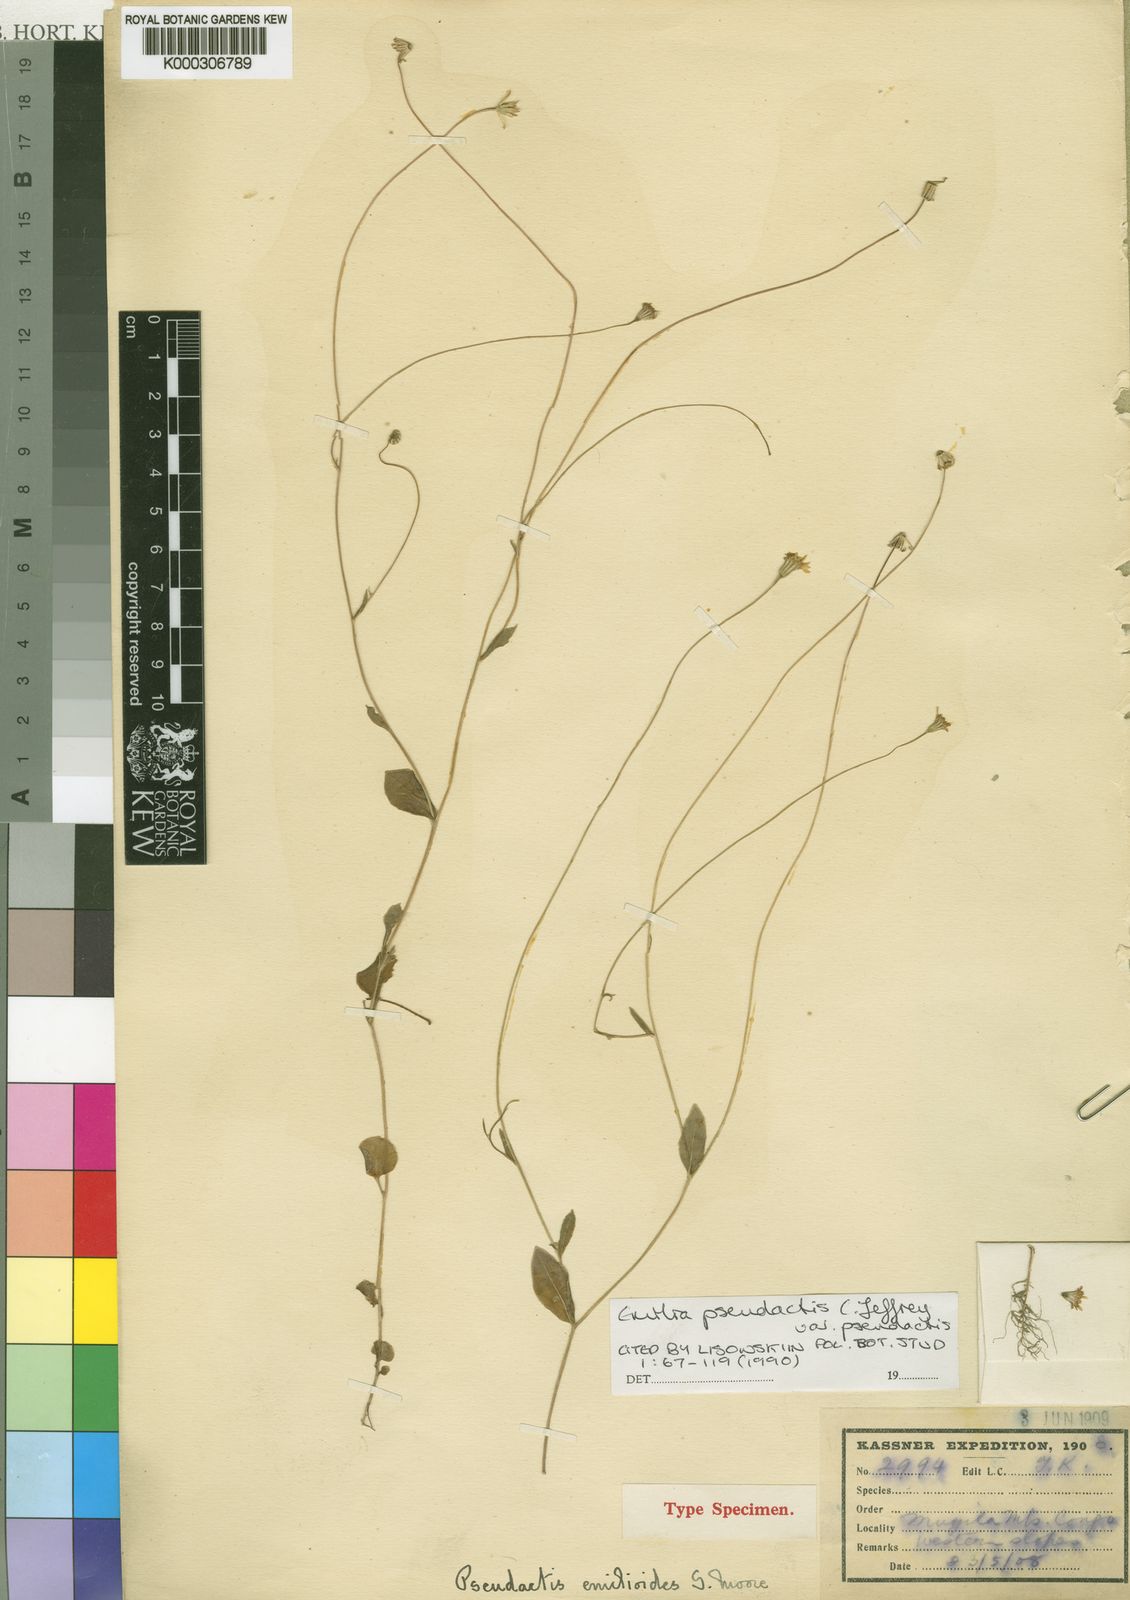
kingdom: Plantae
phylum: Tracheophyta
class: Magnoliopsida
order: Asterales
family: Asteraceae
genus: Emilia
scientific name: Emilia pseudactis
